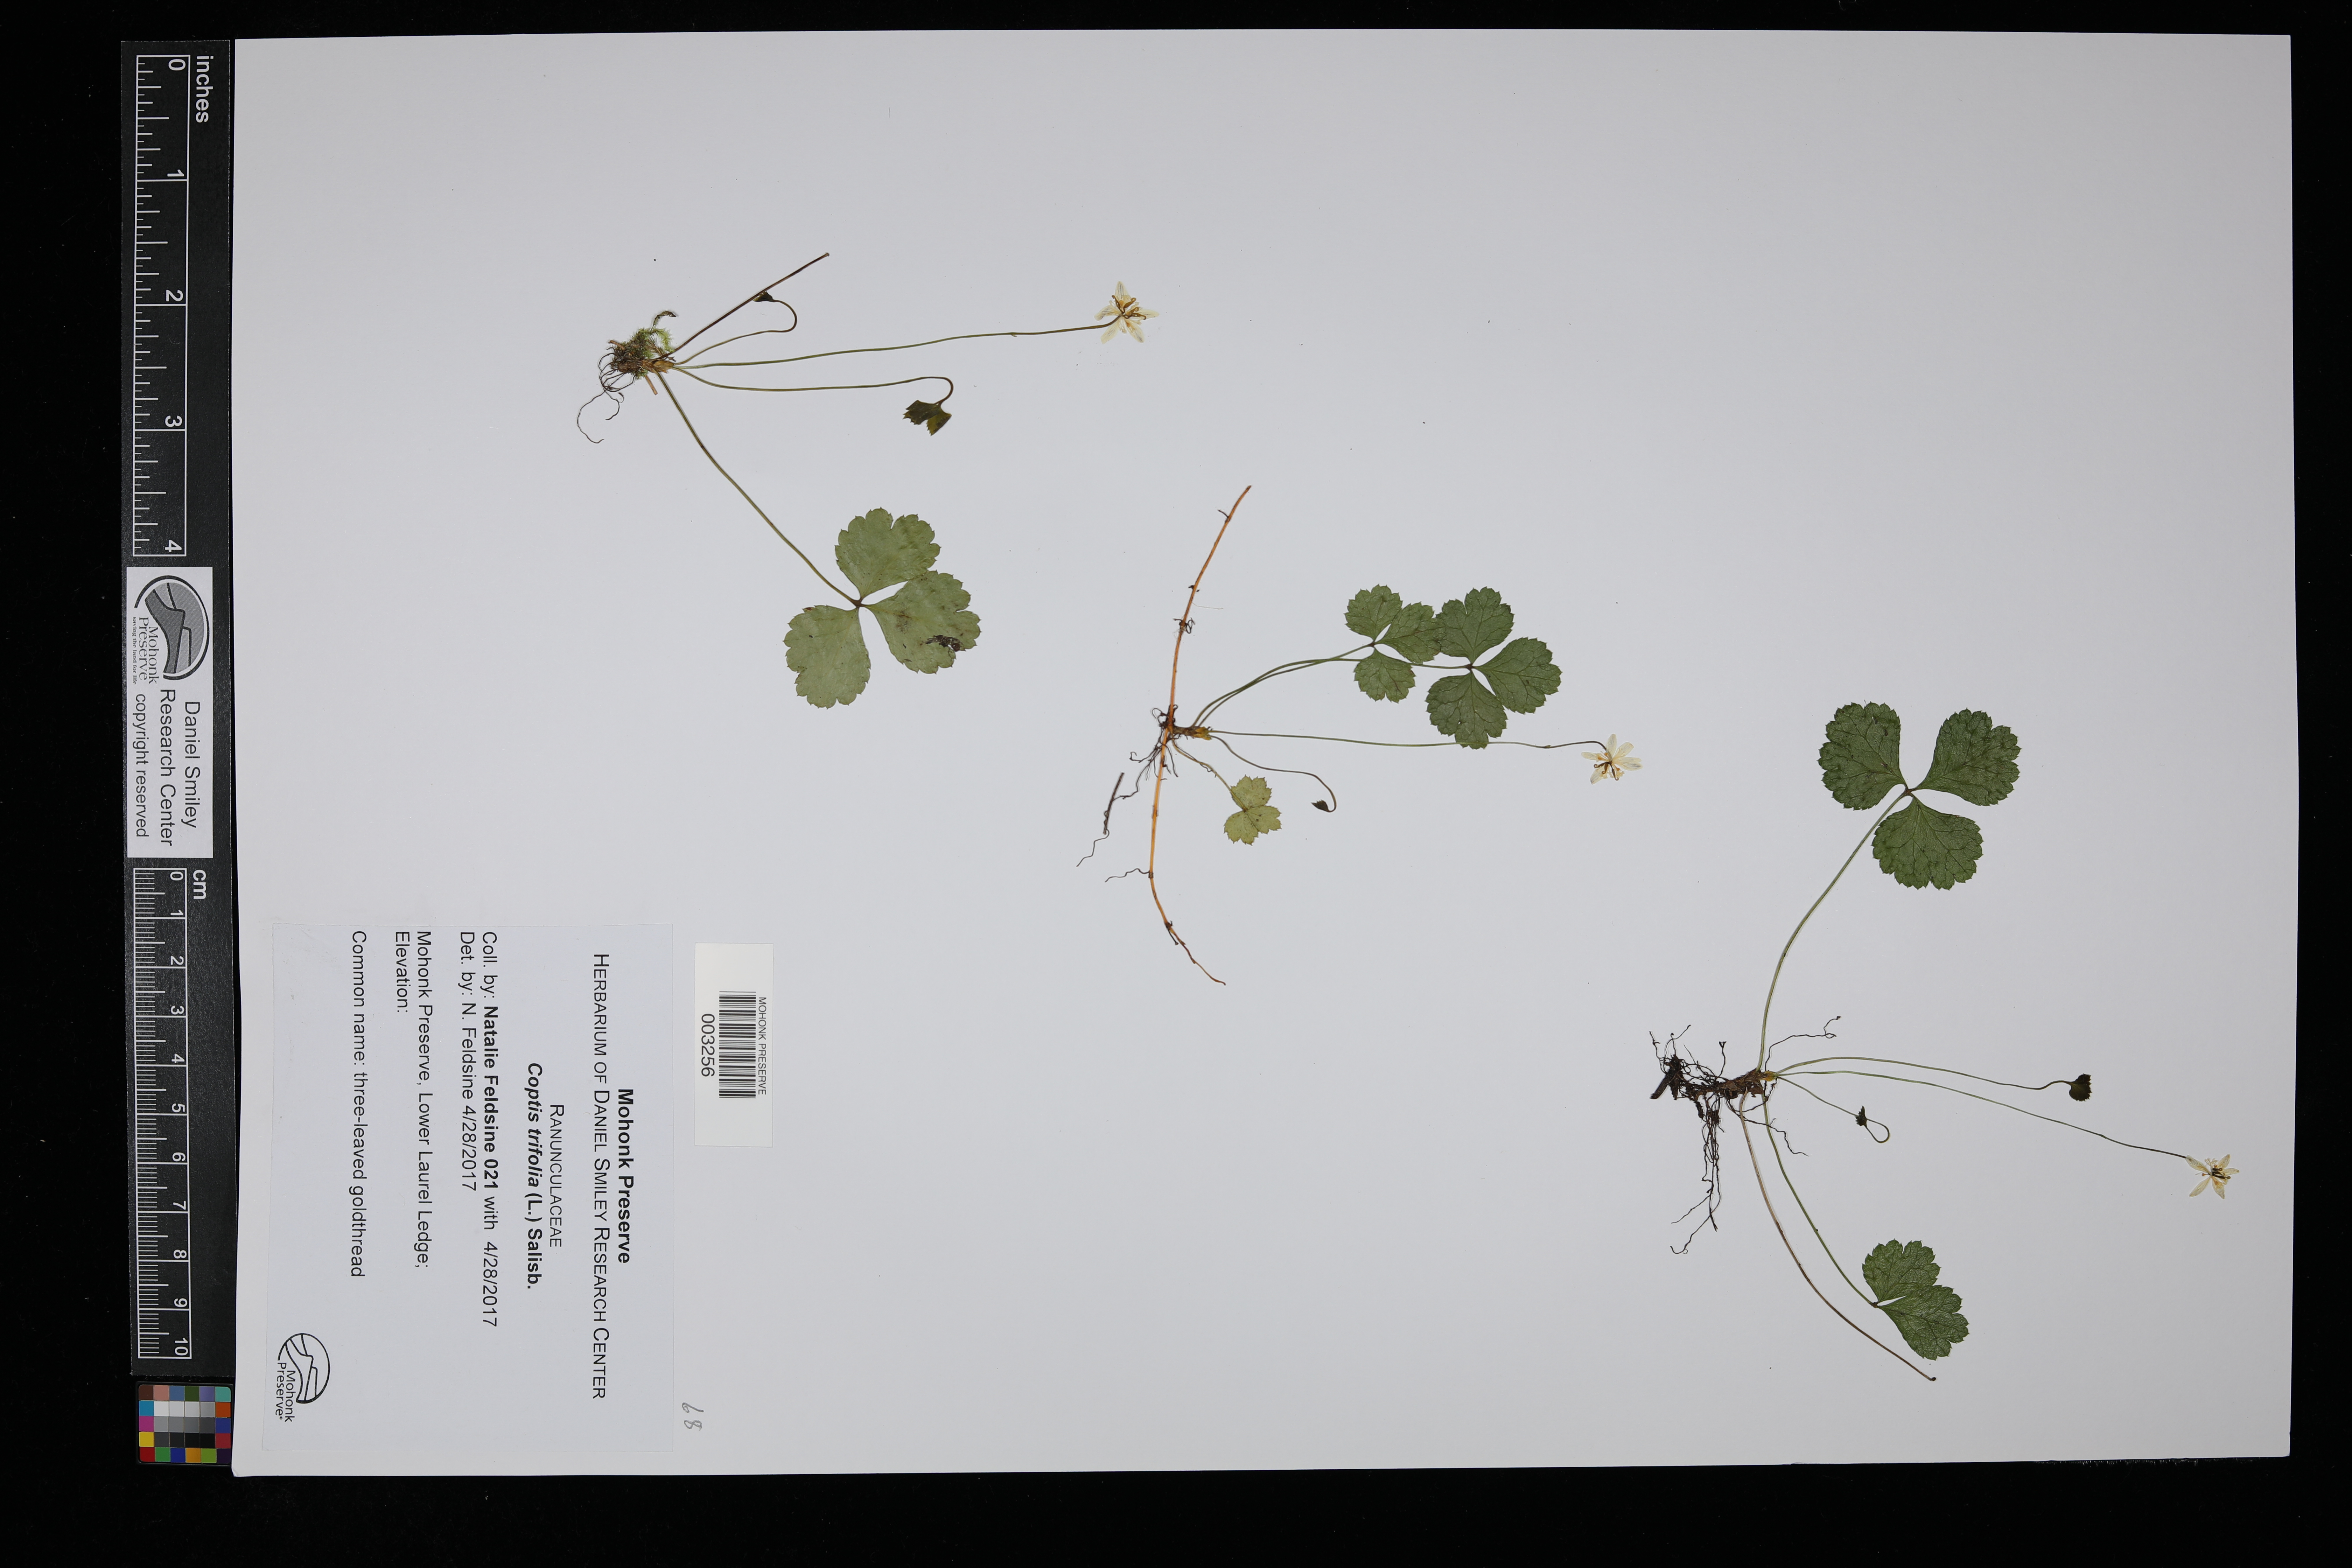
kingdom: Plantae
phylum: Tracheophyta
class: Magnoliopsida
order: Ranunculales
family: Ranunculaceae
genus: Coptis
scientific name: Coptis trifolia
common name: Canker-root
